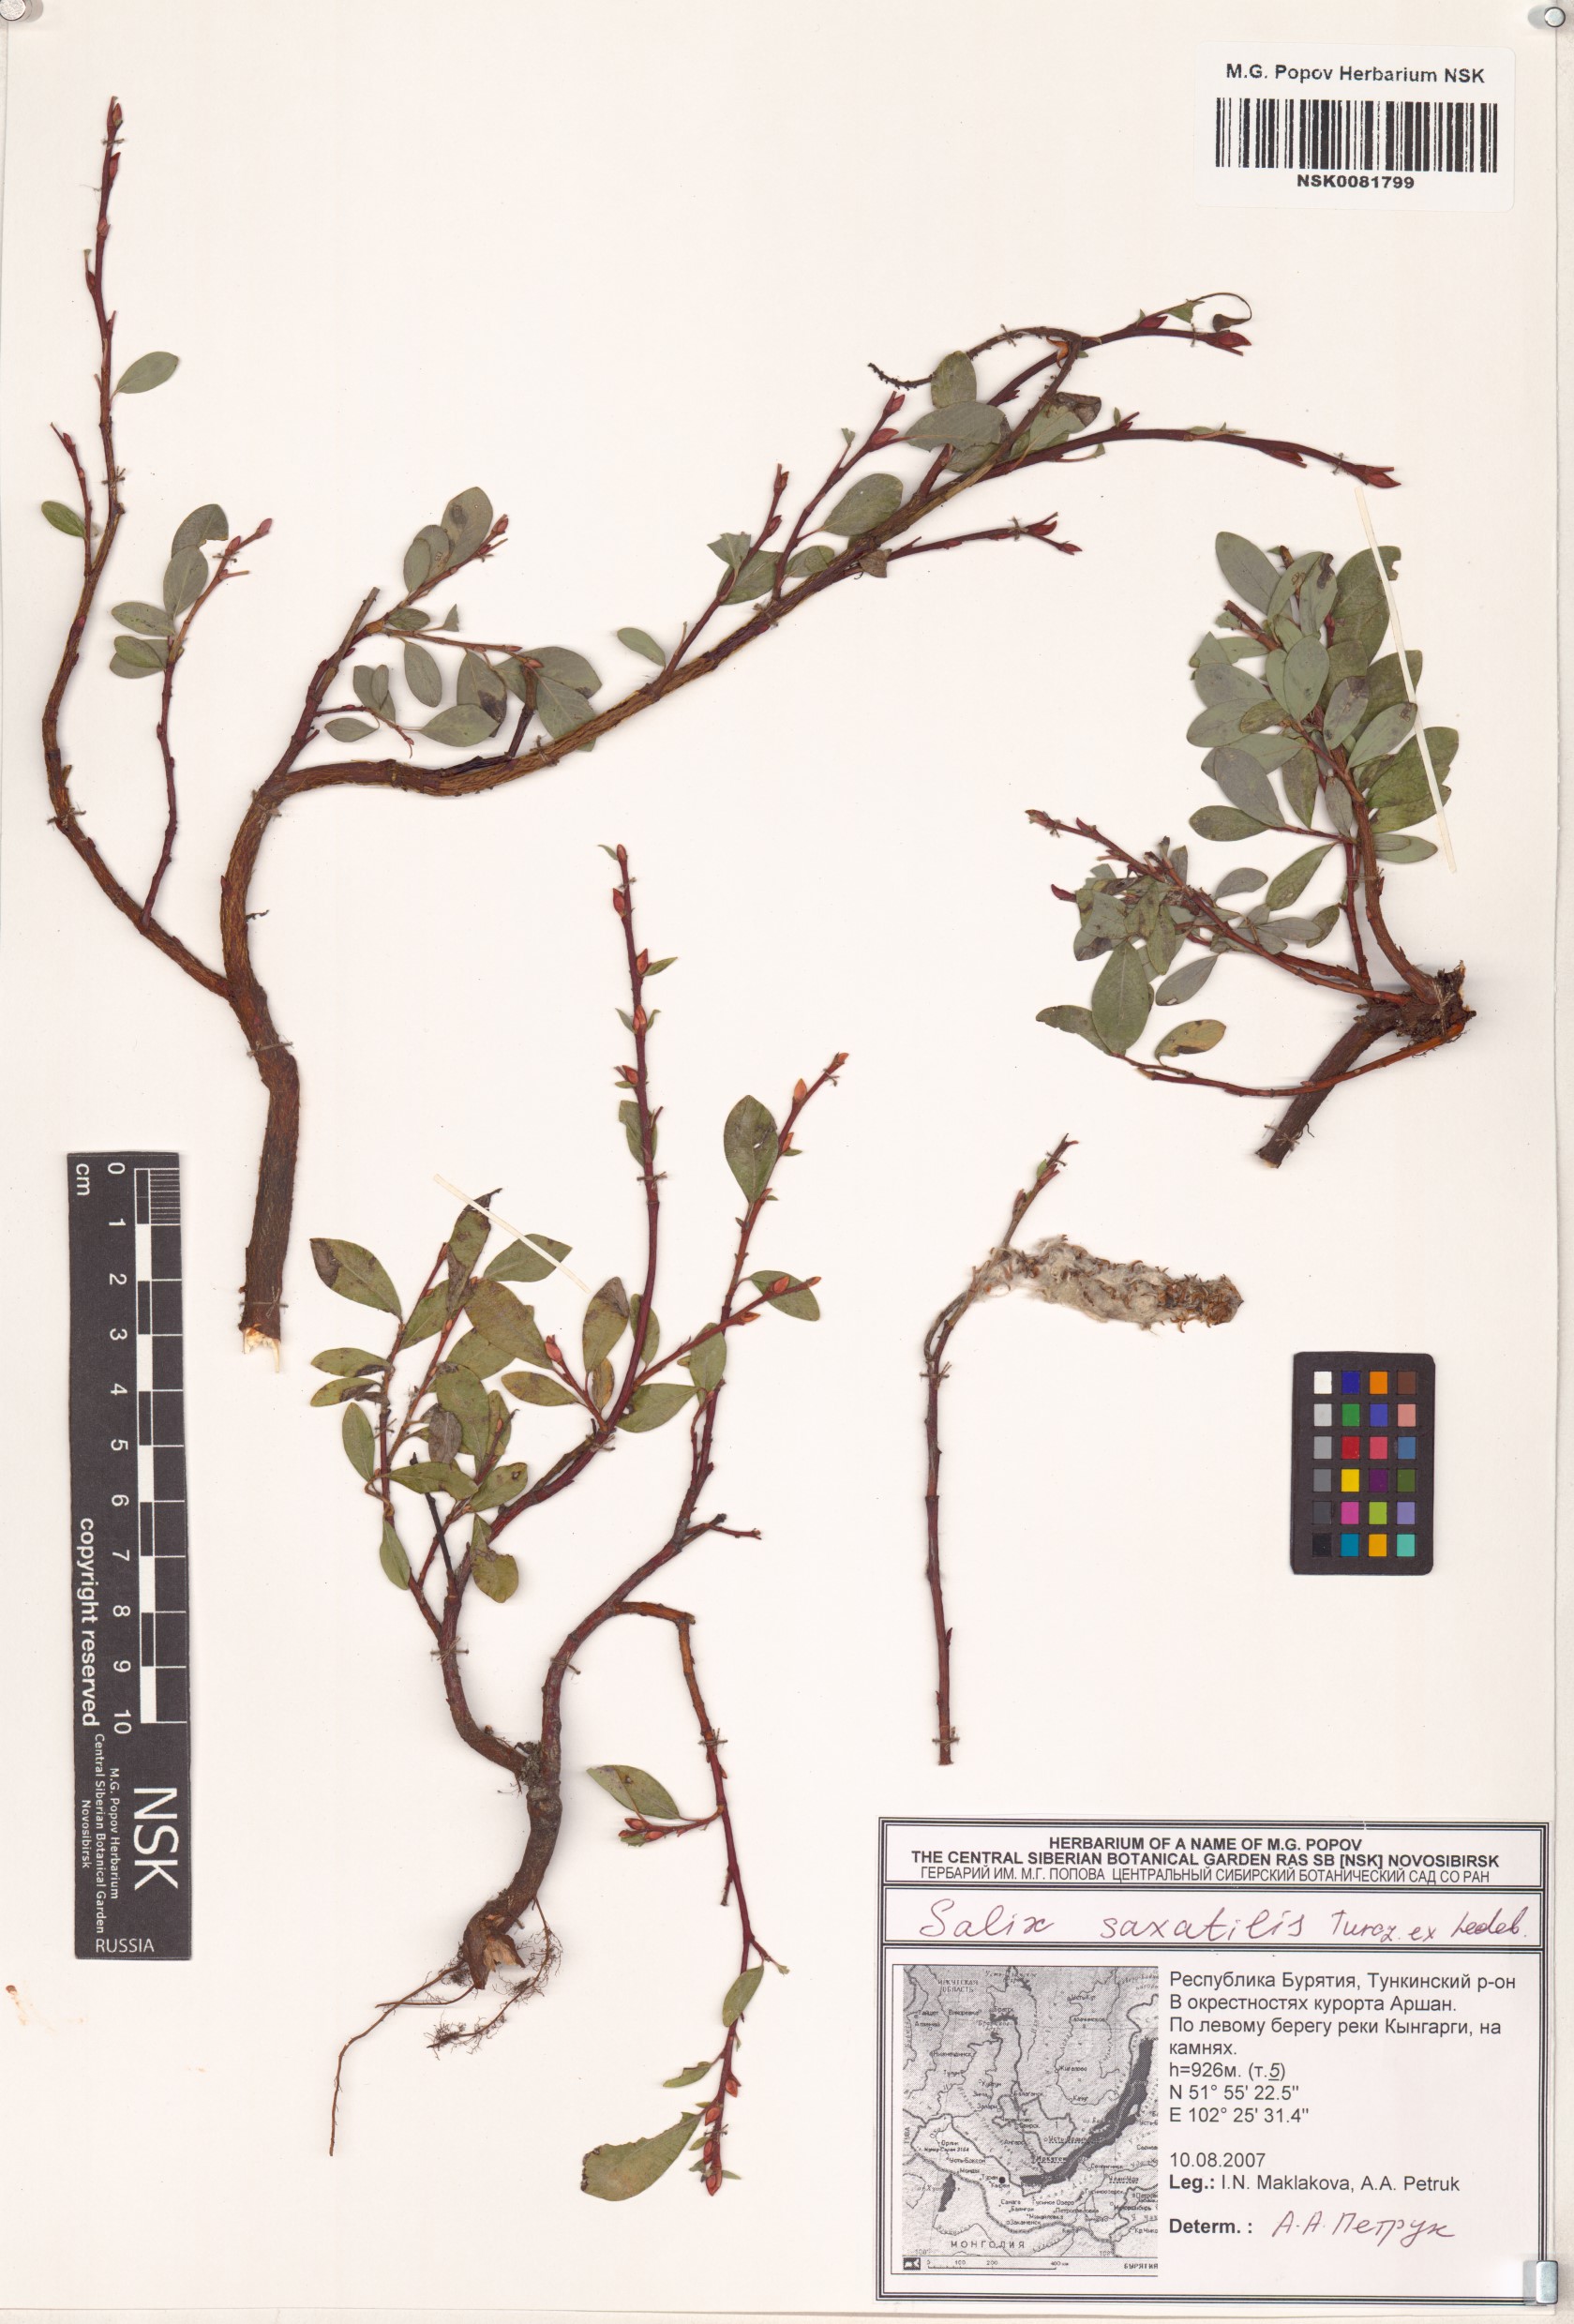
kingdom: Plantae
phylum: Tracheophyta
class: Magnoliopsida
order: Malpighiales
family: Salicaceae
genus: Salix
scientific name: Salix saxatilis
